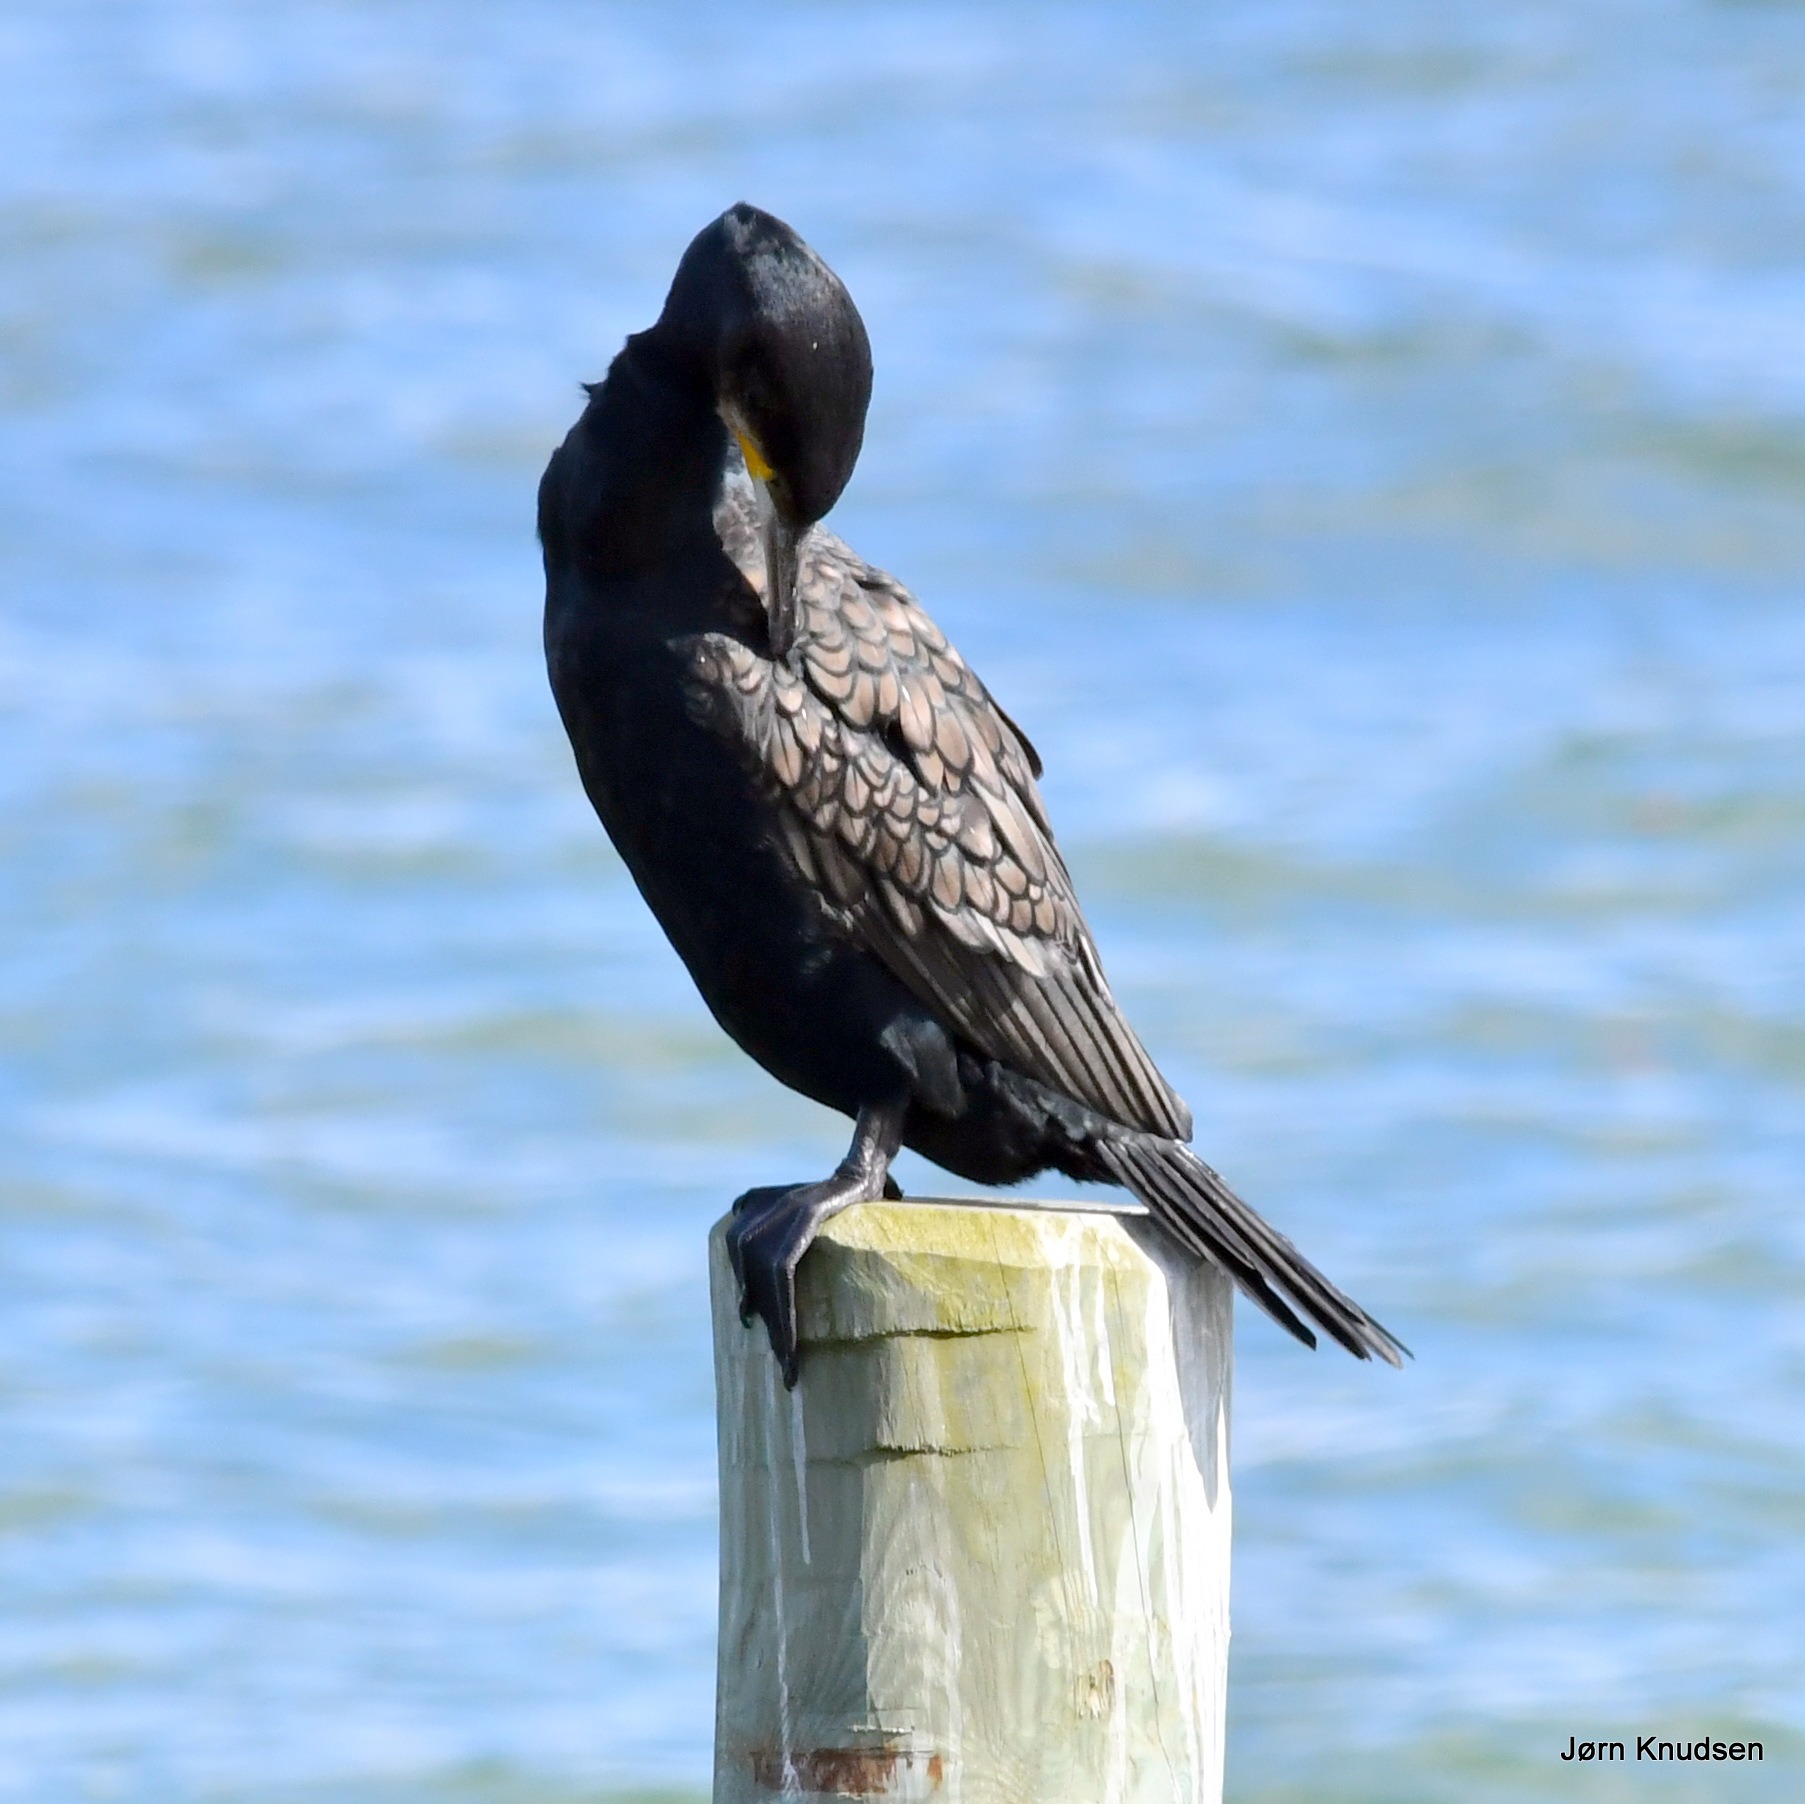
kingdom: Animalia
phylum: Chordata
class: Aves
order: Suliformes
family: Phalacrocoracidae
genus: Phalacrocorax
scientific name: Phalacrocorax carbo
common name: Skarv
